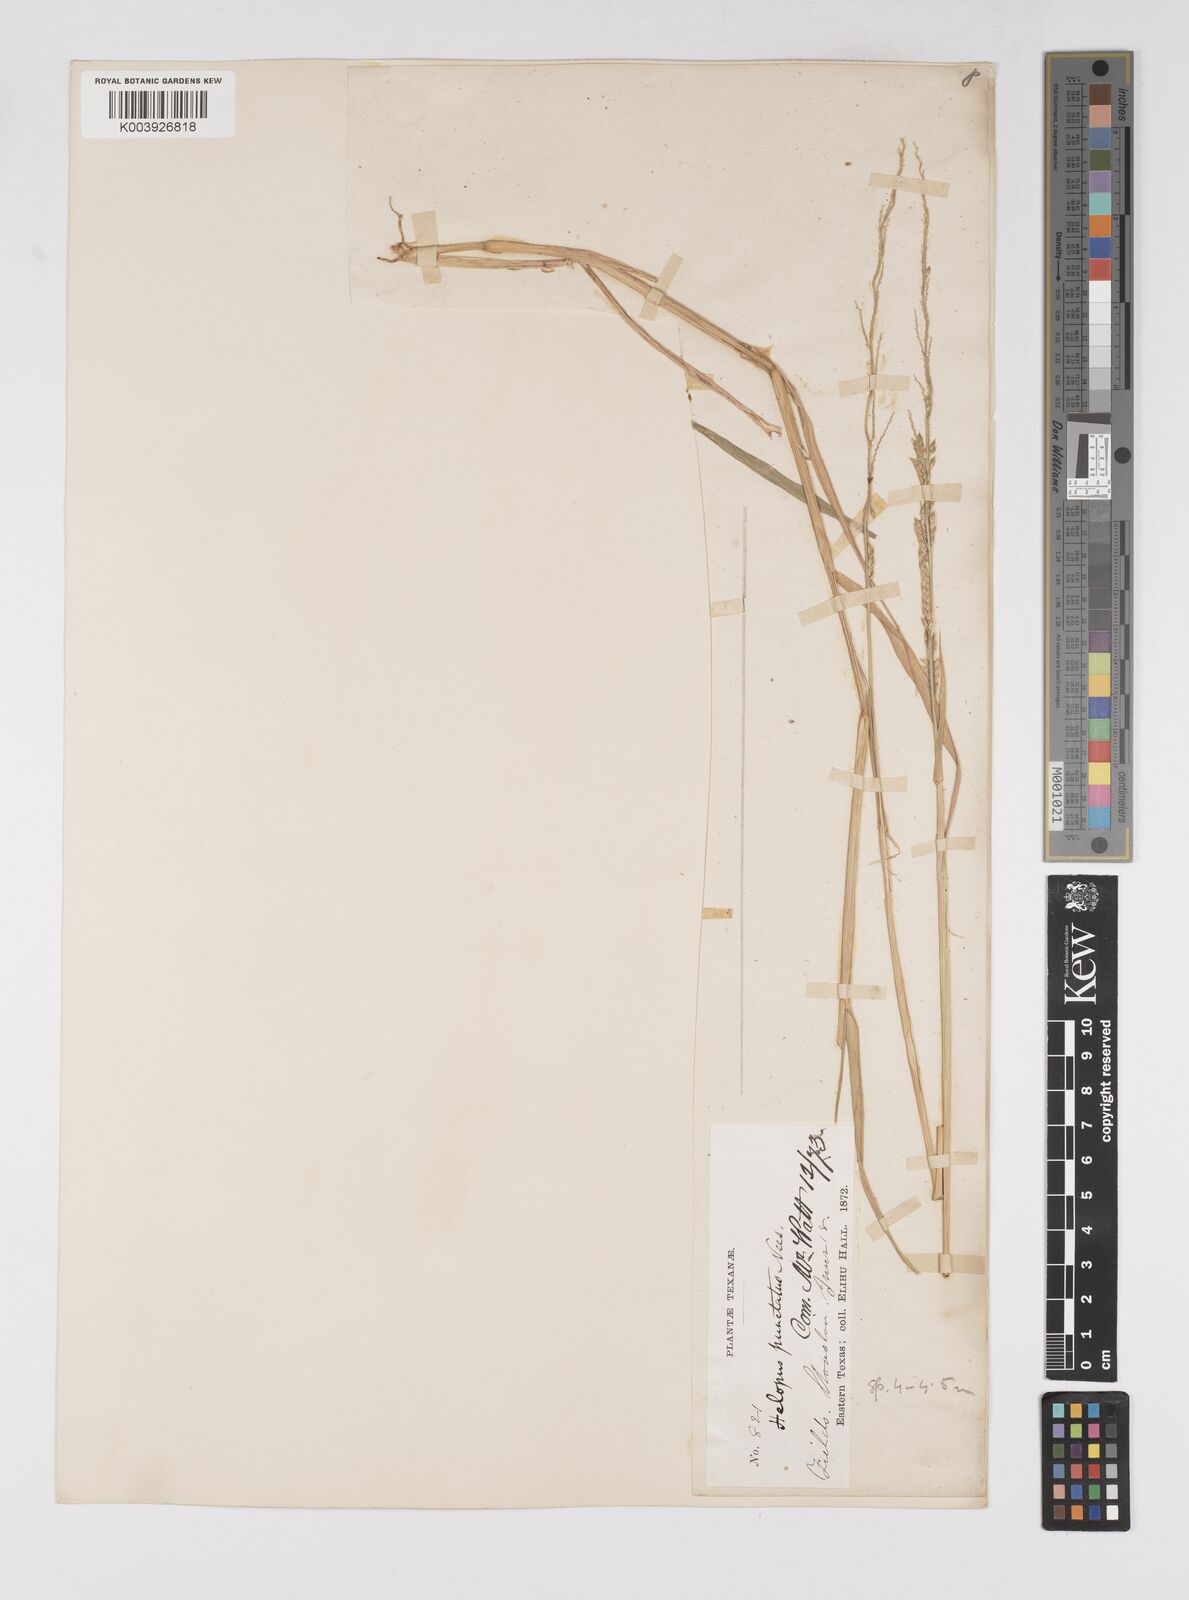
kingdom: Plantae
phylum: Tracheophyta
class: Liliopsida
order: Poales
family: Poaceae
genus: Eriochloa
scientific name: Eriochloa punctata
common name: Louisiana cupgrass
